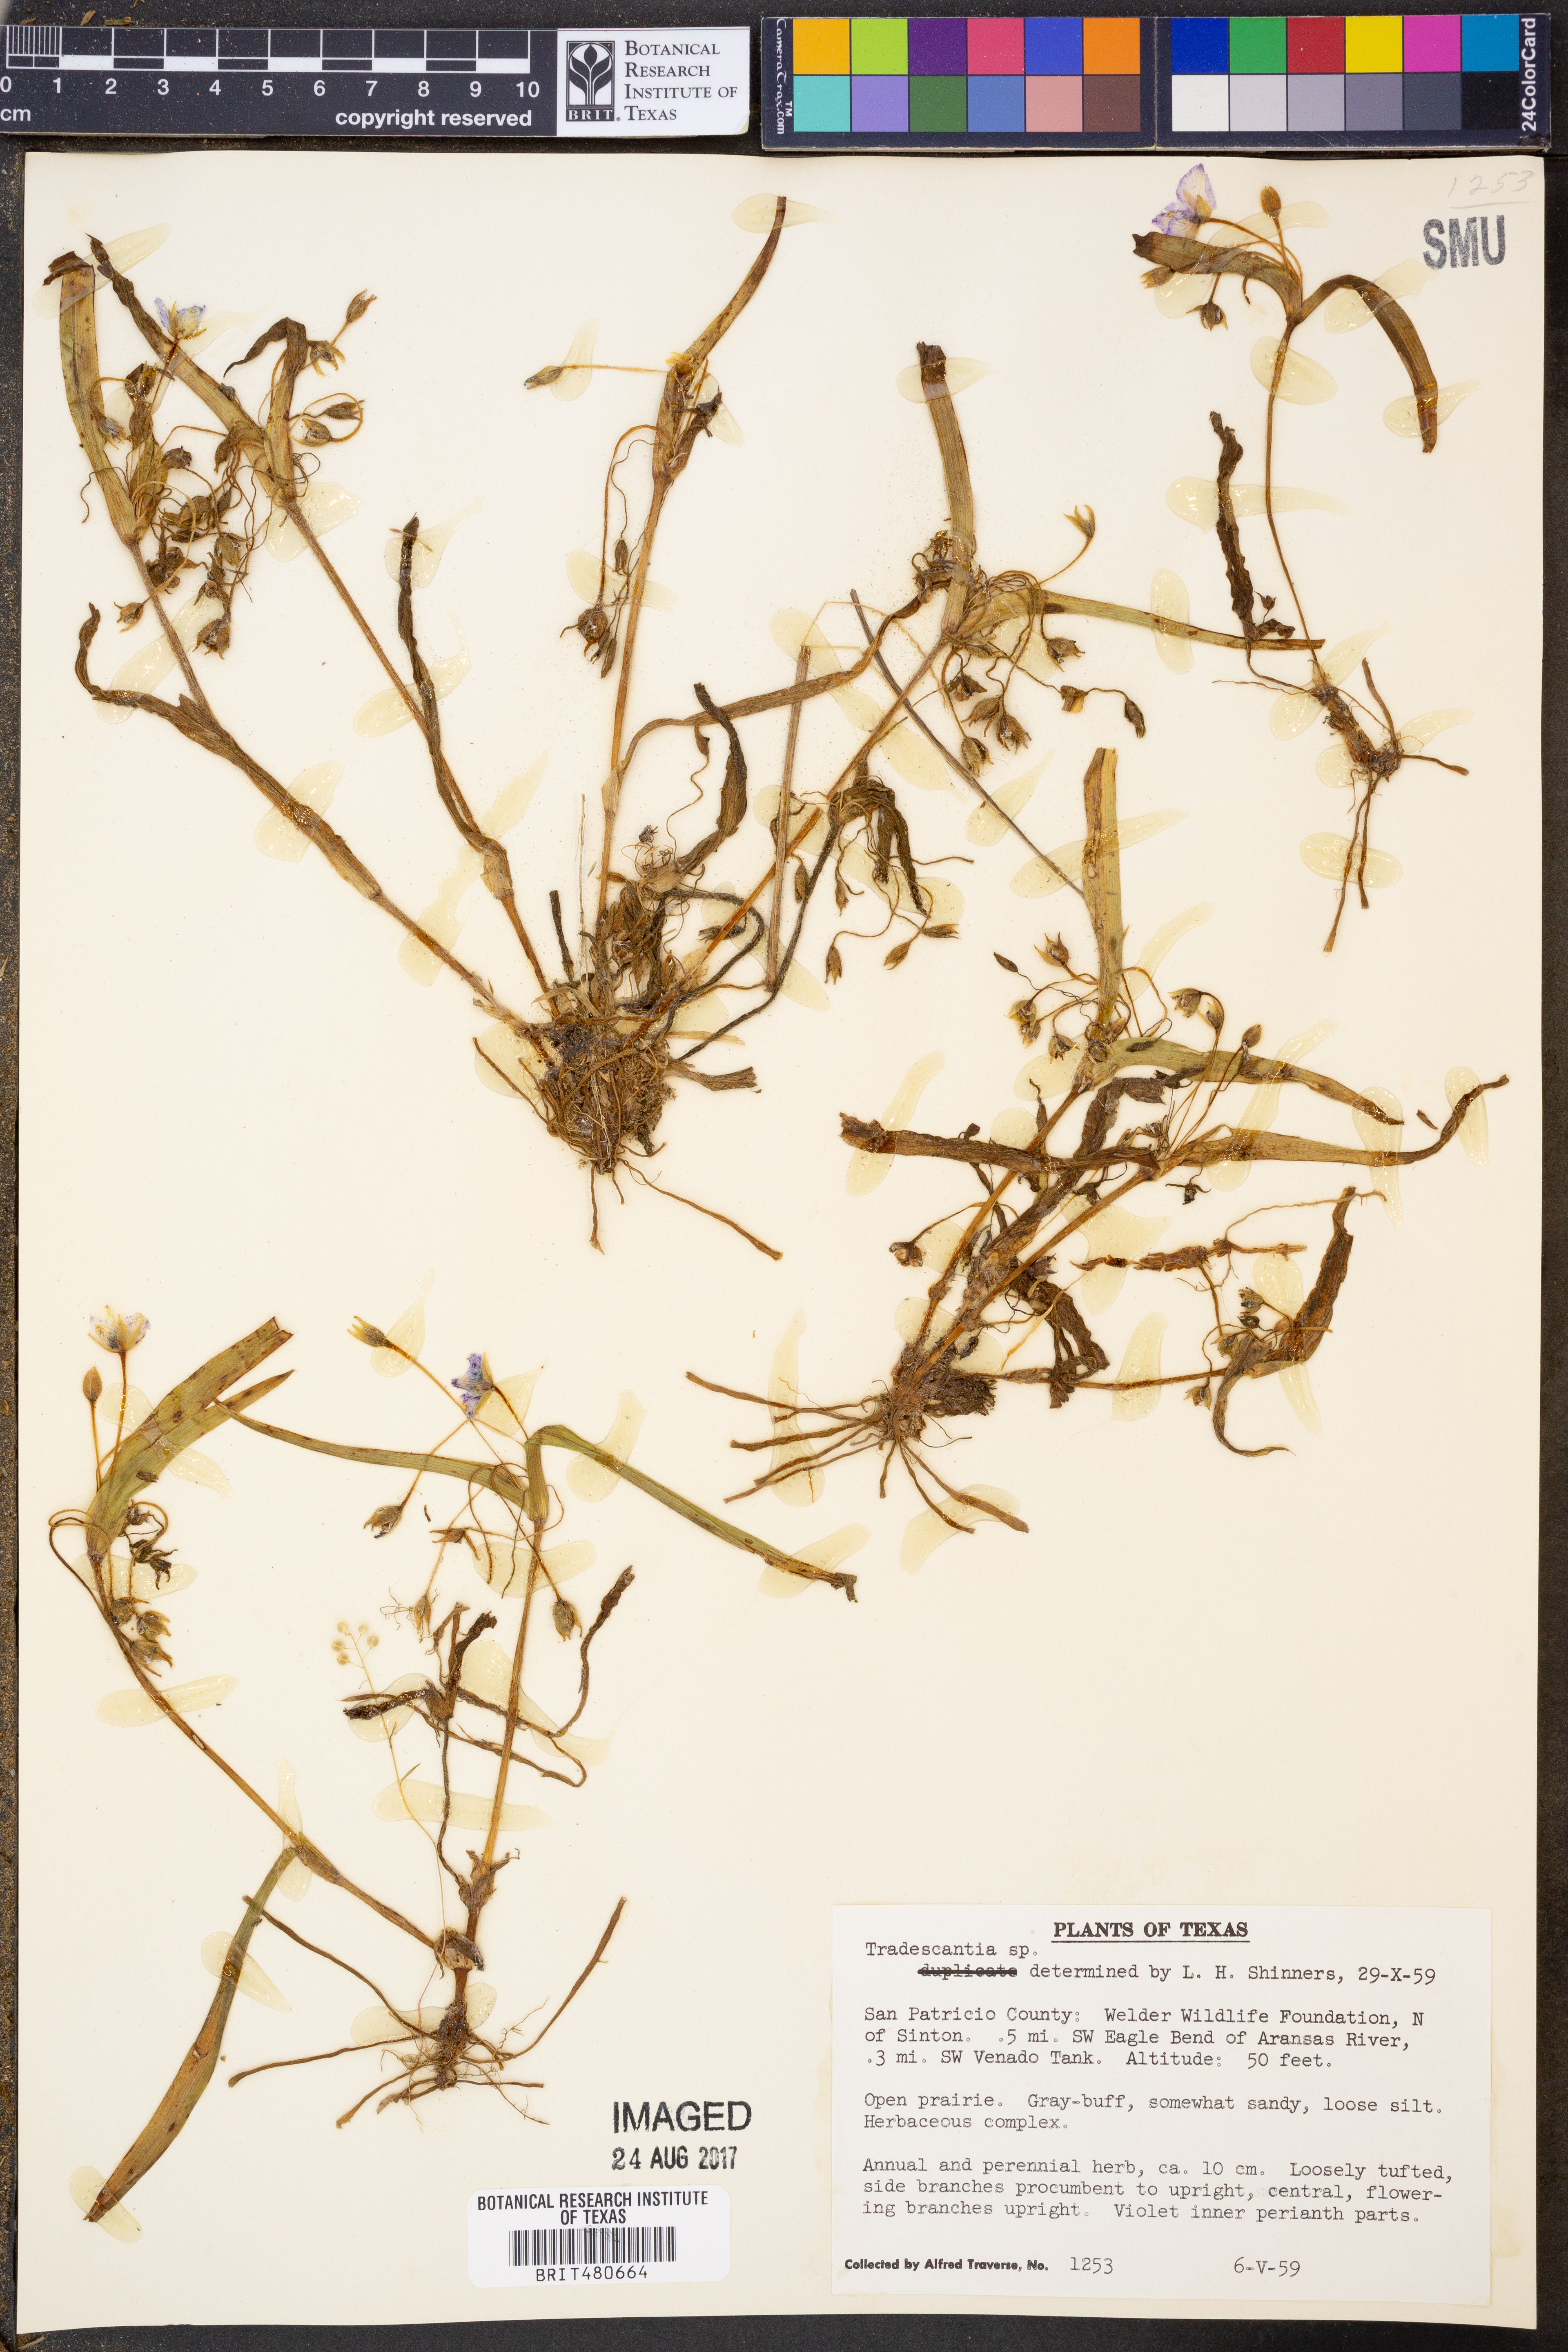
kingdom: Plantae
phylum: Tracheophyta
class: Liliopsida
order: Commelinales
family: Commelinaceae
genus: Tradescantia
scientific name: Tradescantia
